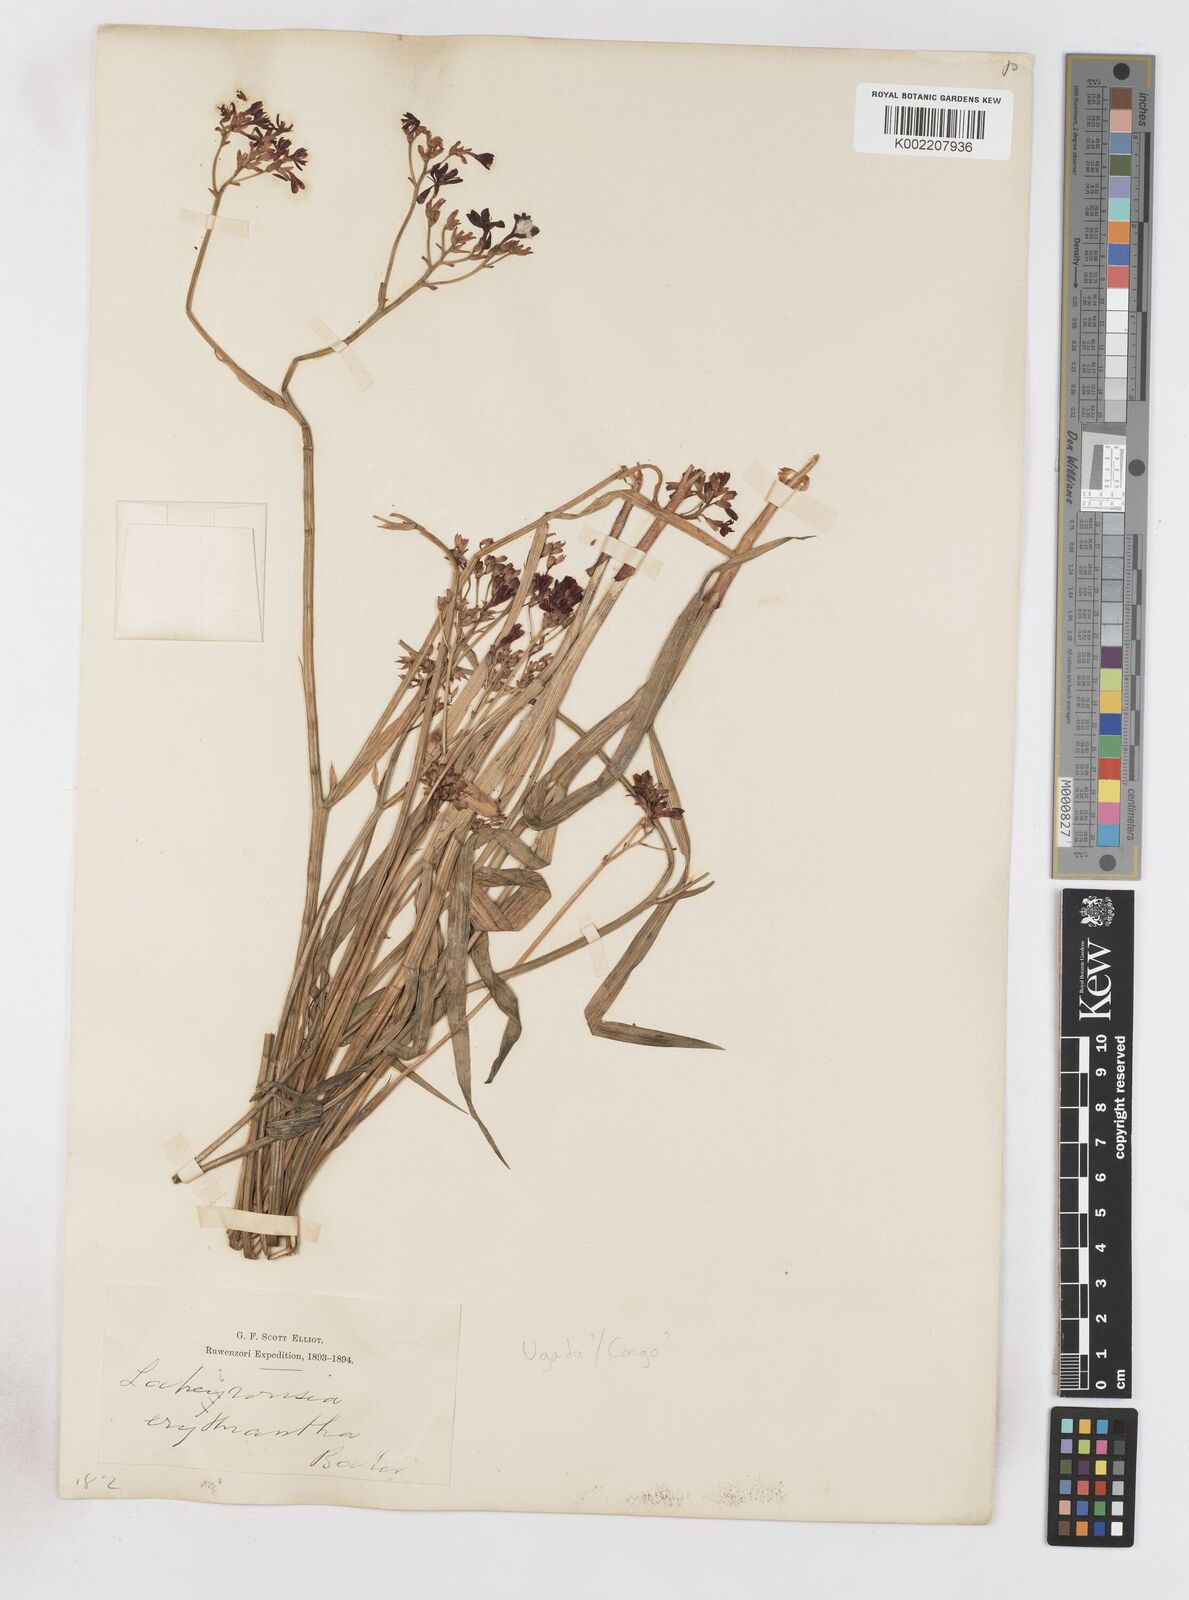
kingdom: Plantae
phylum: Tracheophyta
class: Liliopsida
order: Asparagales
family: Iridaceae
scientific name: Iridaceae
